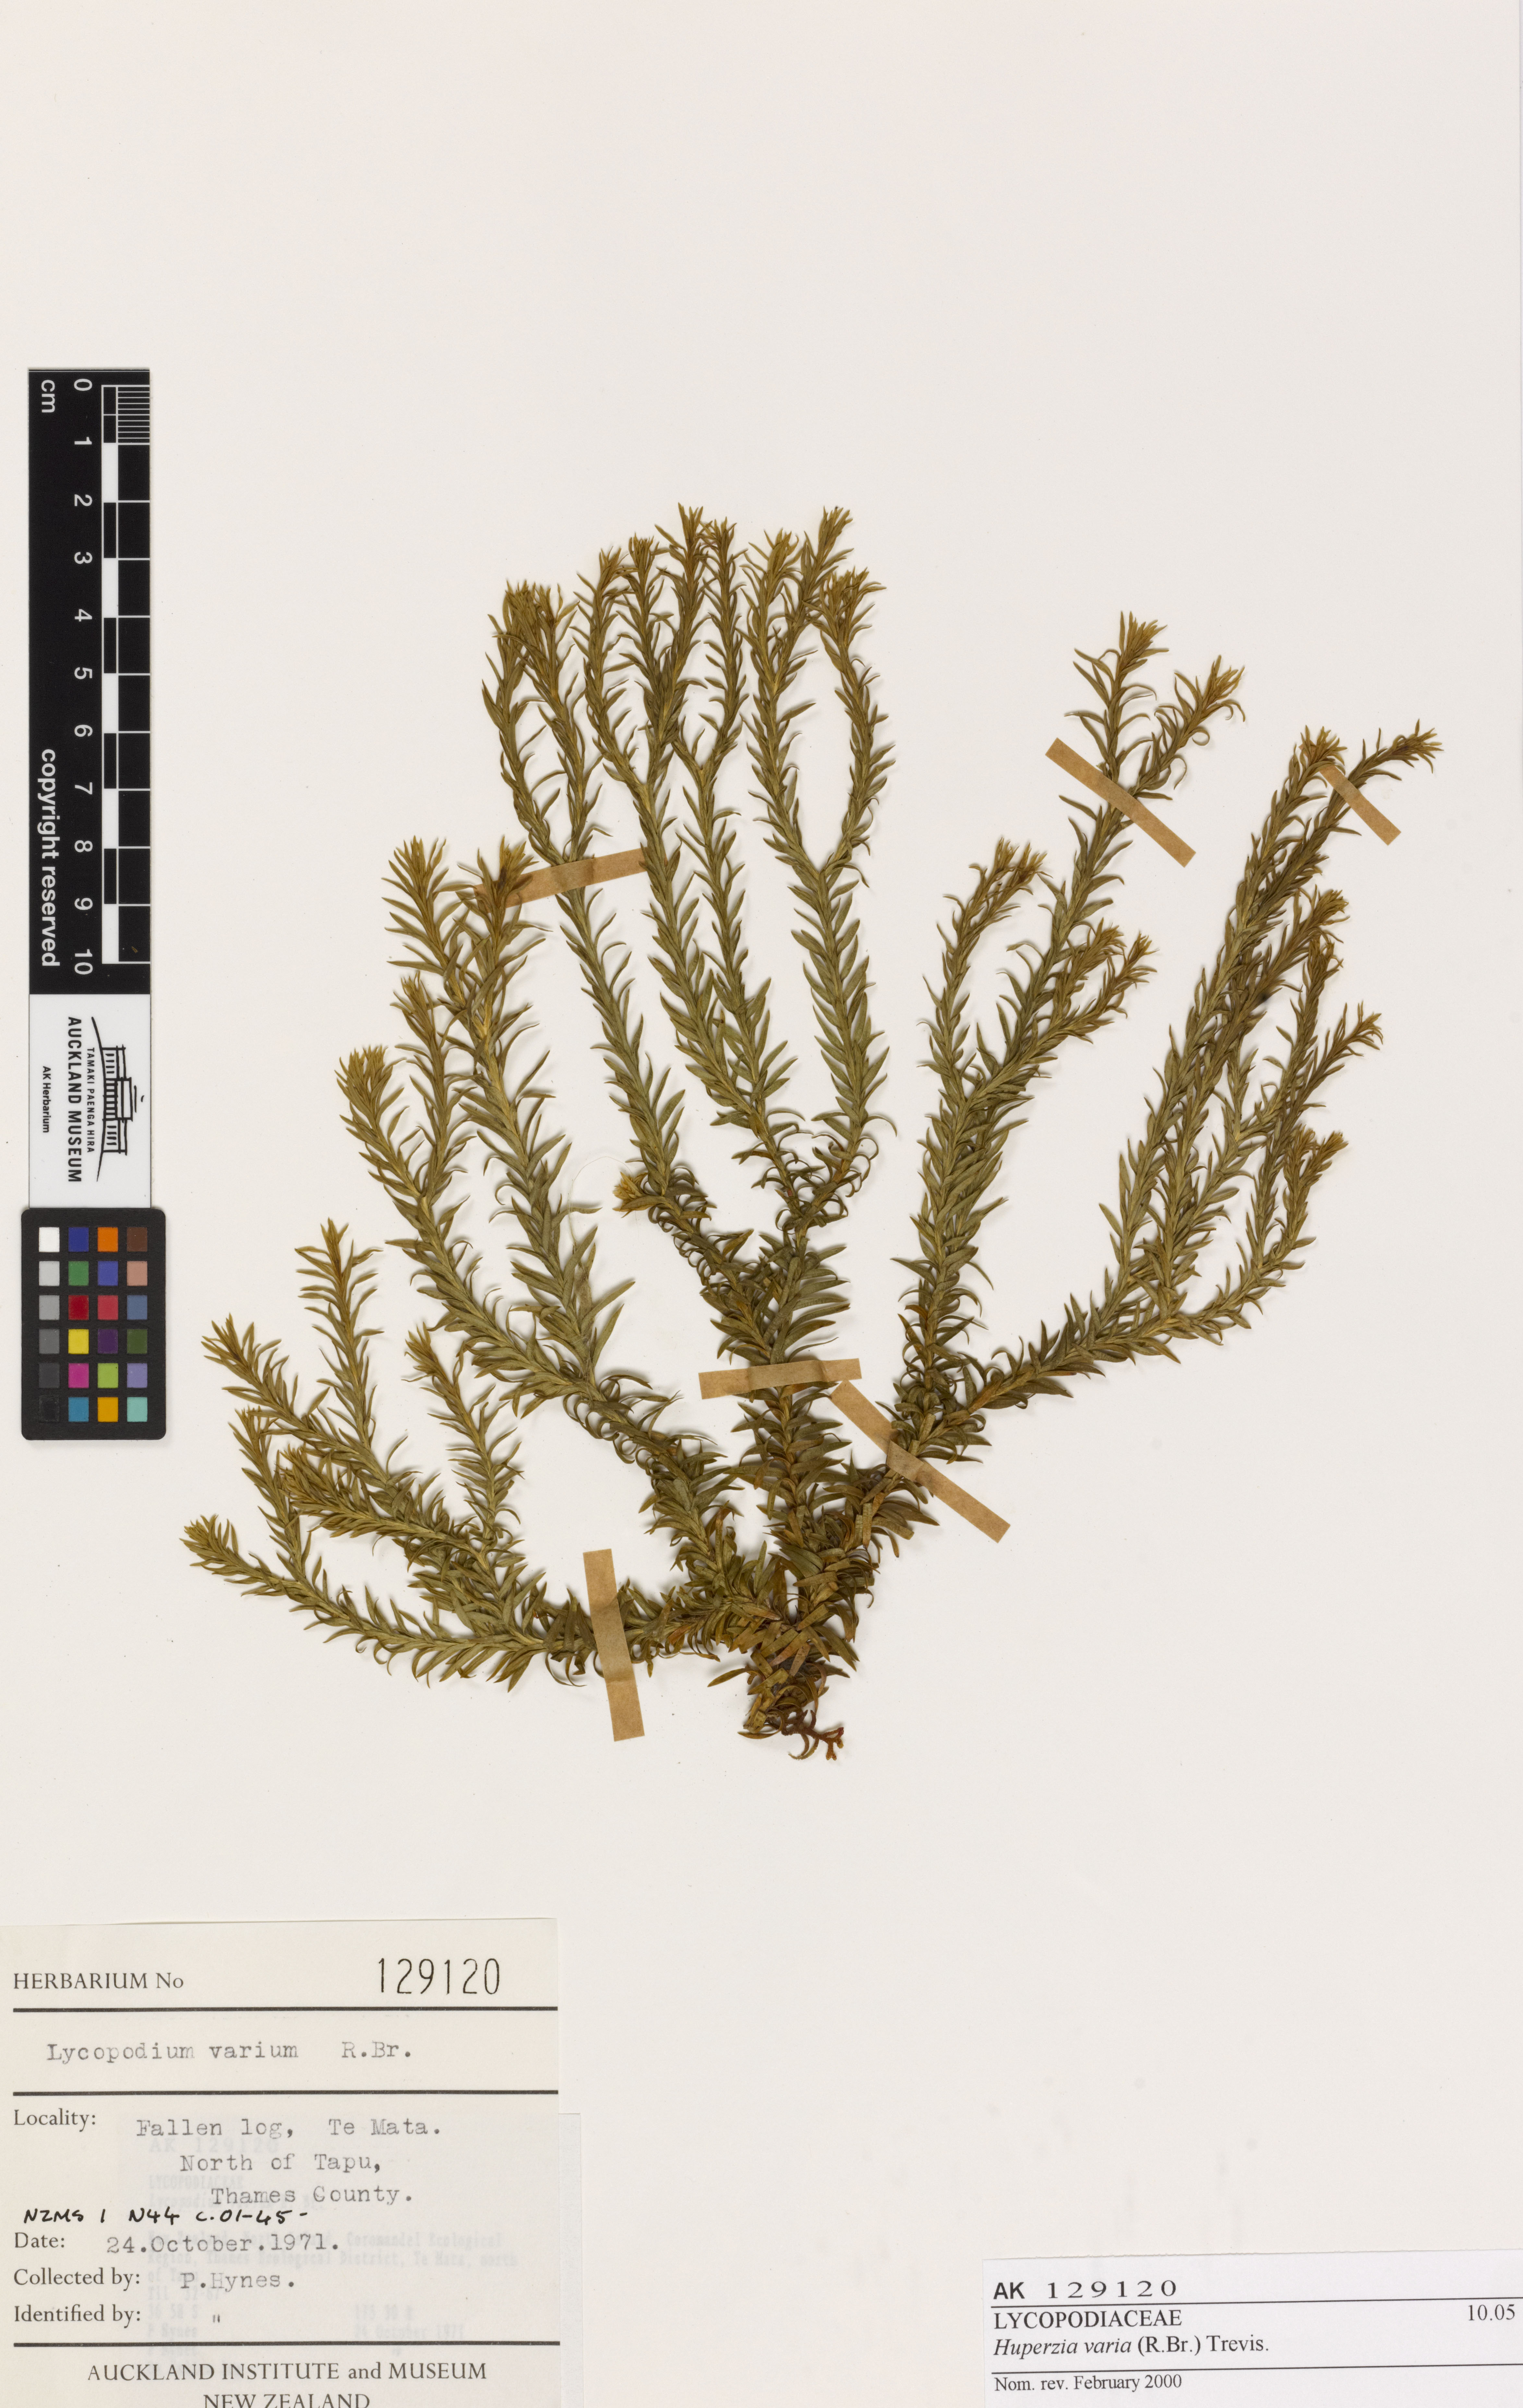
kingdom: Plantae
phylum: Tracheophyta
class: Lycopodiopsida
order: Lycopodiales
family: Lycopodiaceae
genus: Phlegmariurus
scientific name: Phlegmariurus
